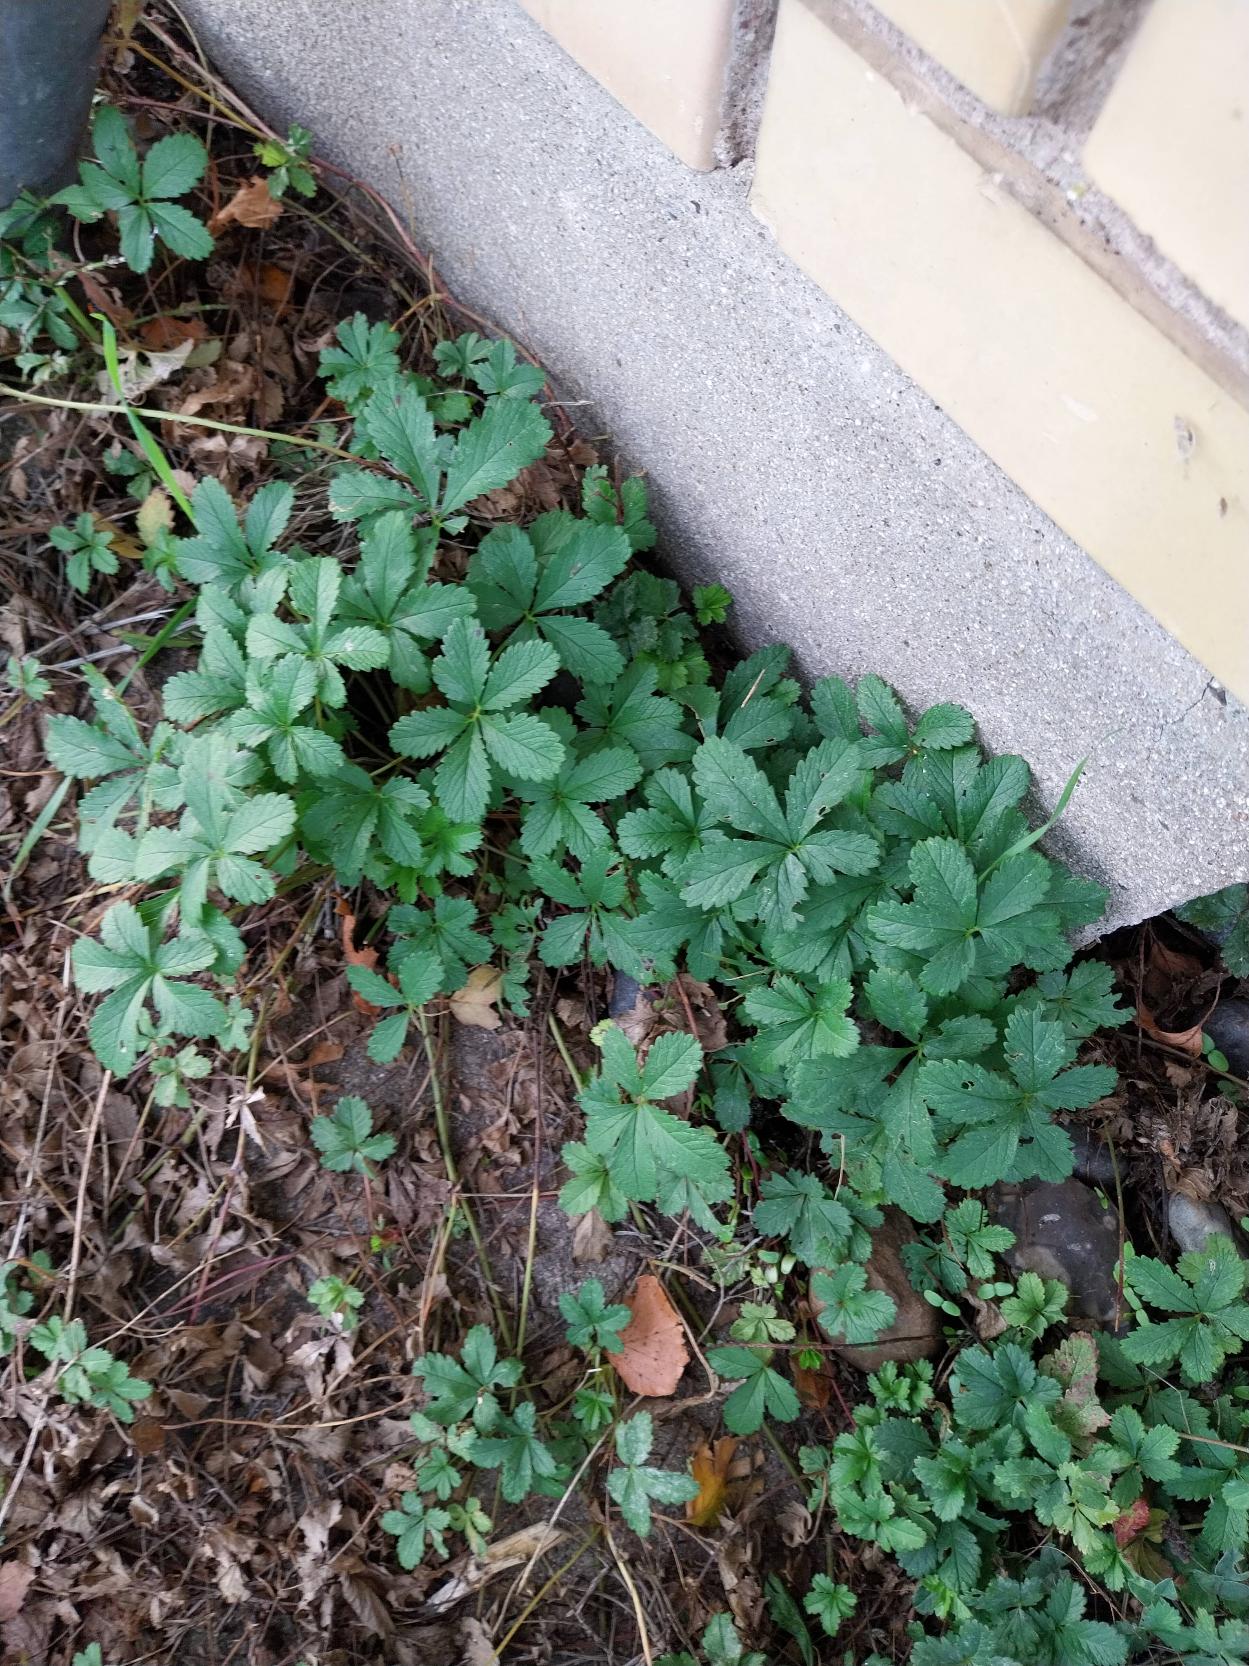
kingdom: Plantae
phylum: Tracheophyta
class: Magnoliopsida
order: Rosales
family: Rosaceae
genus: Potentilla
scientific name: Potentilla reptans
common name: Krybende potentil
